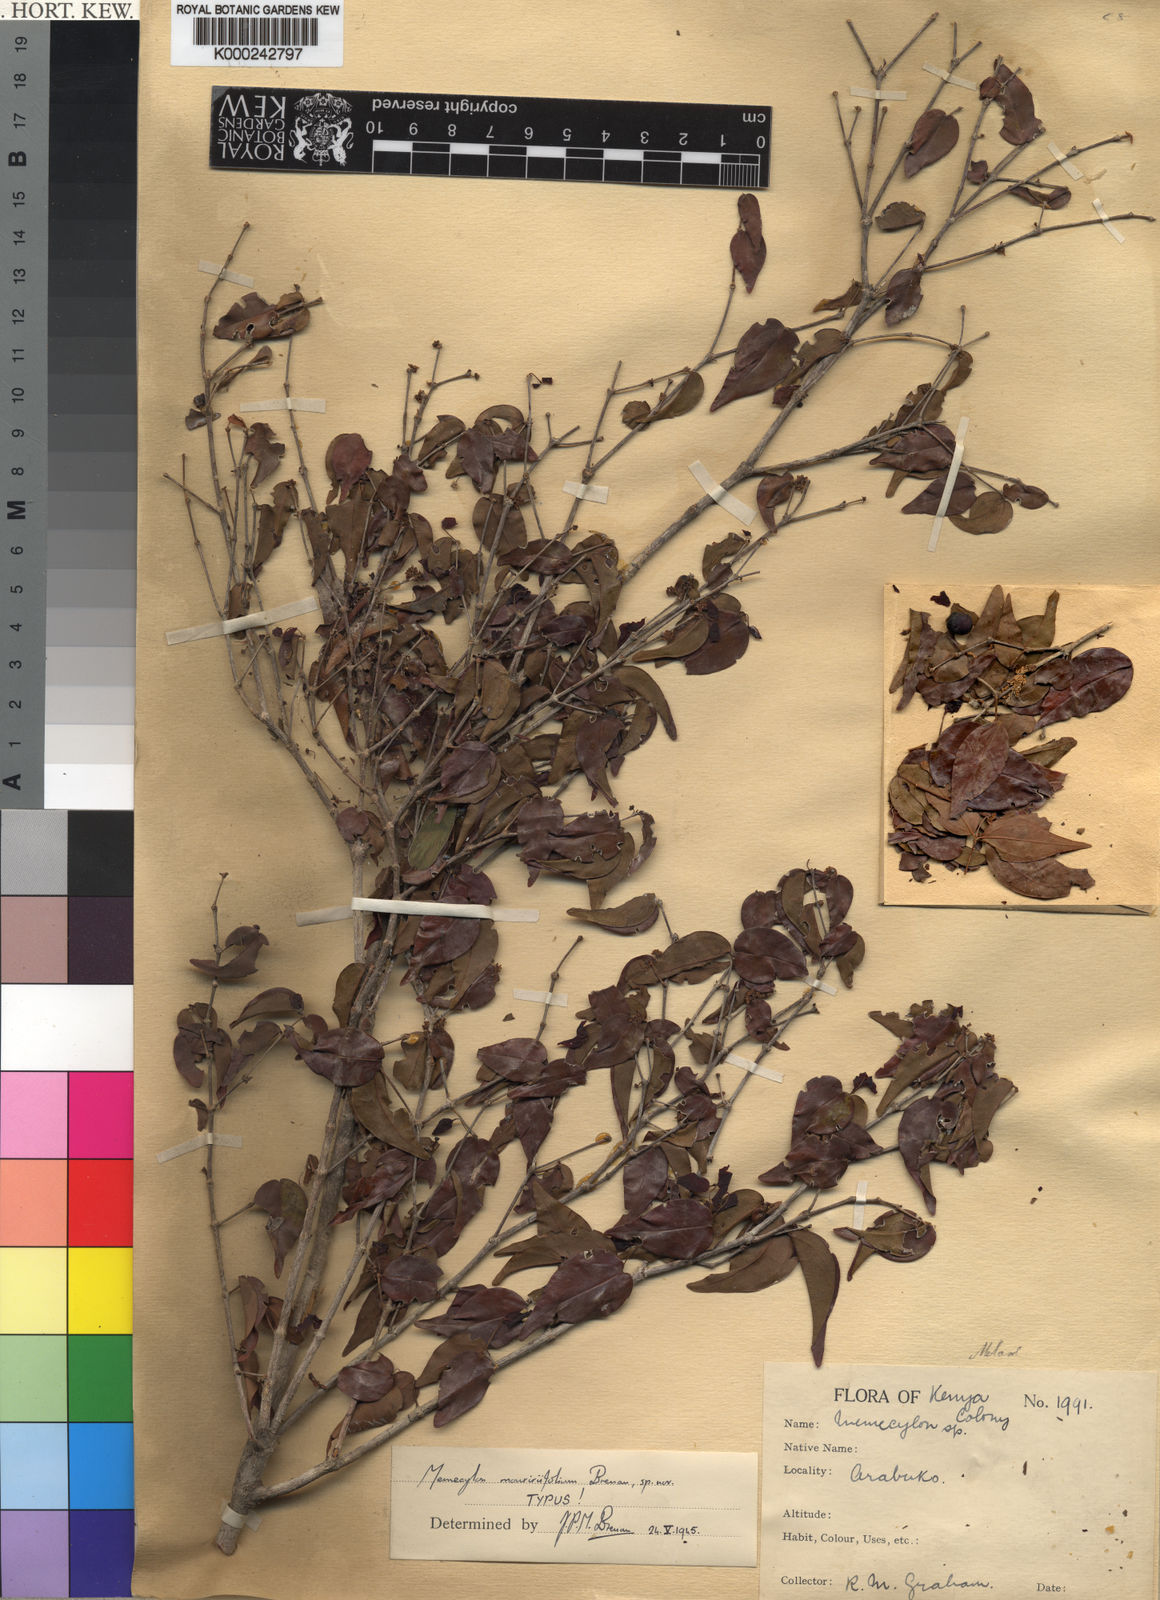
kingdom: Plantae
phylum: Tracheophyta
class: Magnoliopsida
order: Myrtales
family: Melastomataceae
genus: Warneckea
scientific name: Warneckea mouririfolia
